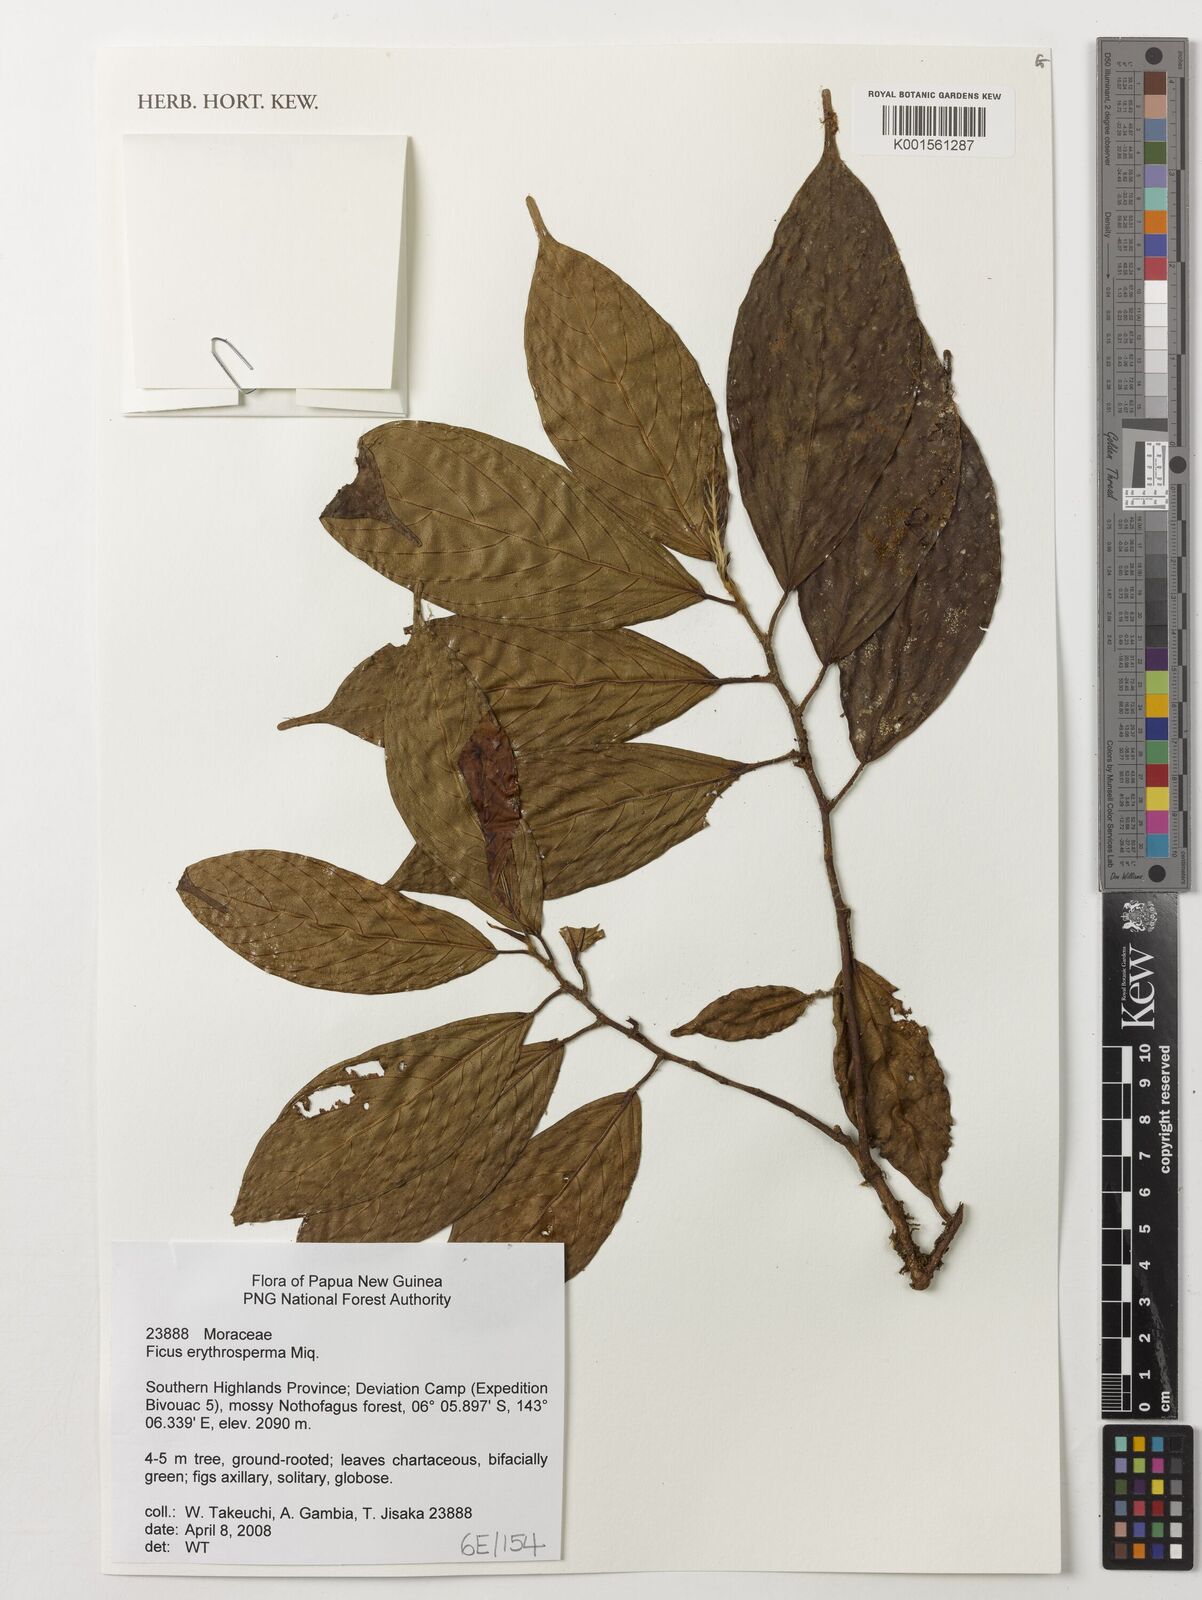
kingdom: Plantae
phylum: Tracheophyta
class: Magnoliopsida
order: Rosales
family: Moraceae
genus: Ficus
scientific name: Ficus erythrosperma
